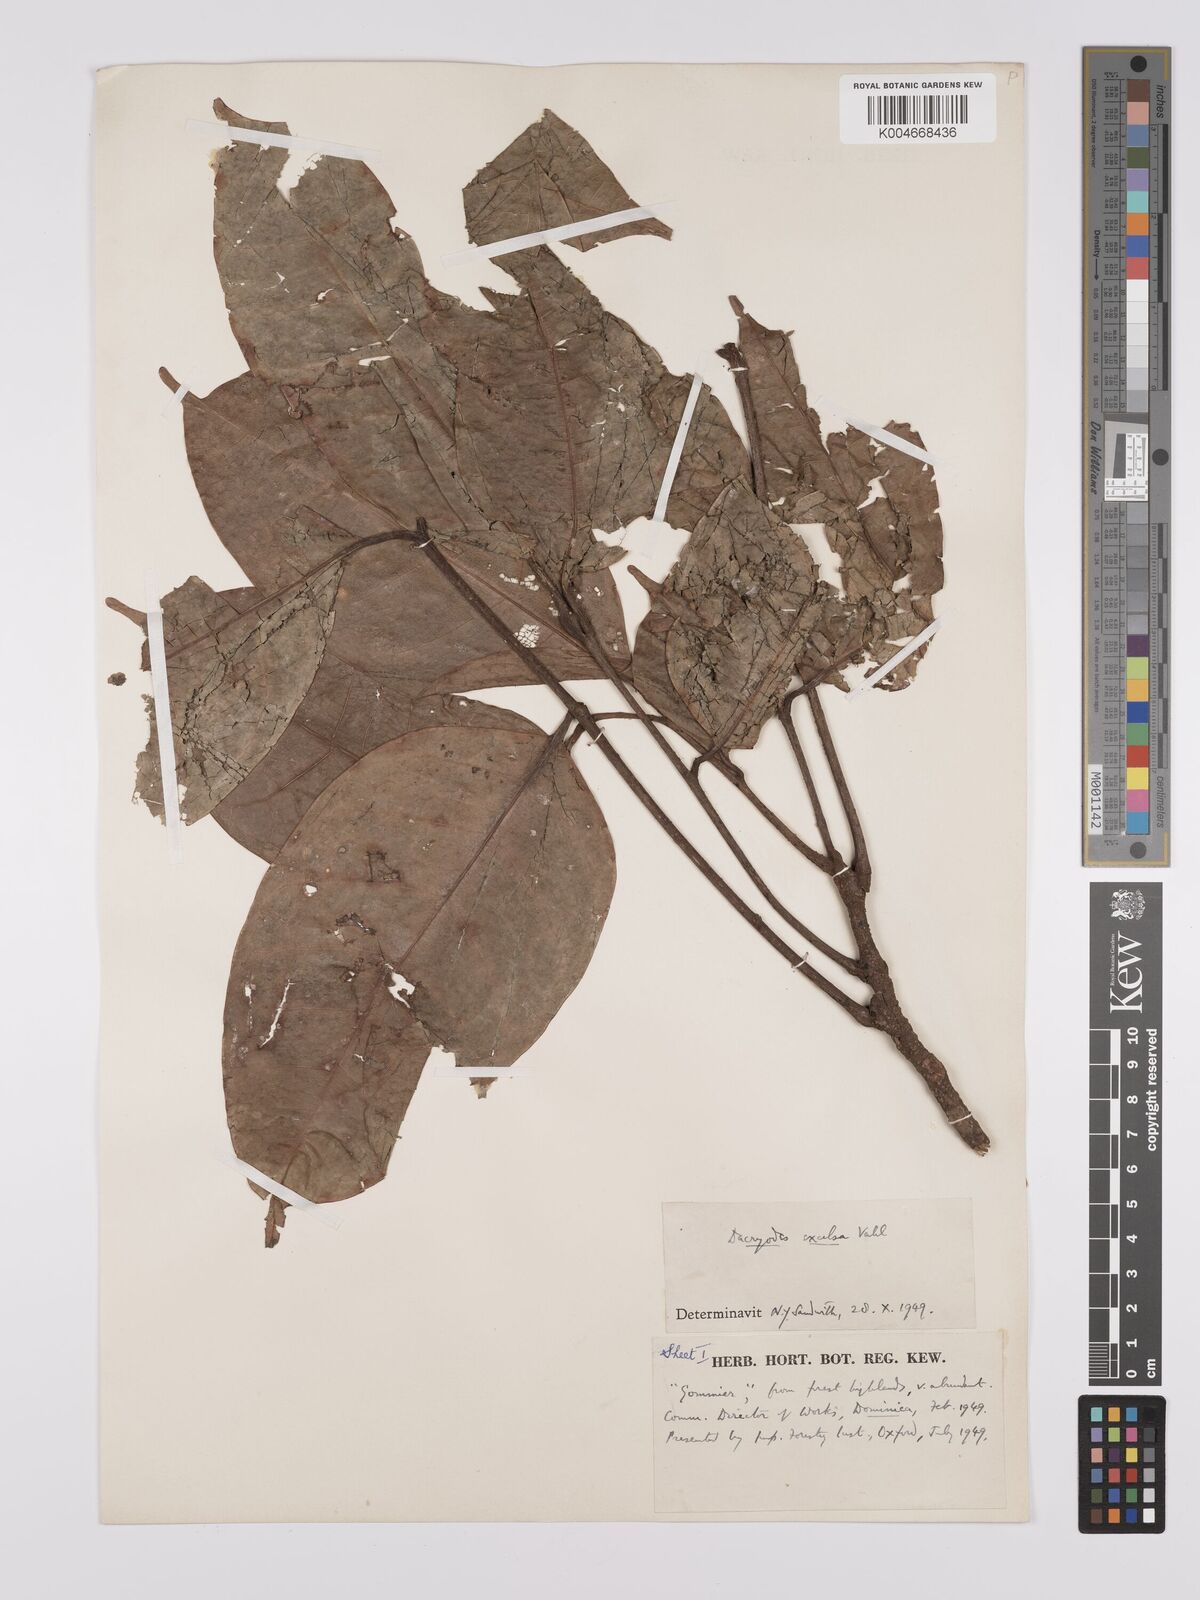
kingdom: Plantae
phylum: Tracheophyta
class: Magnoliopsida
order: Sapindales
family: Burseraceae
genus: Dacryodes
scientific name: Dacryodes excelsa
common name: Candlewood
